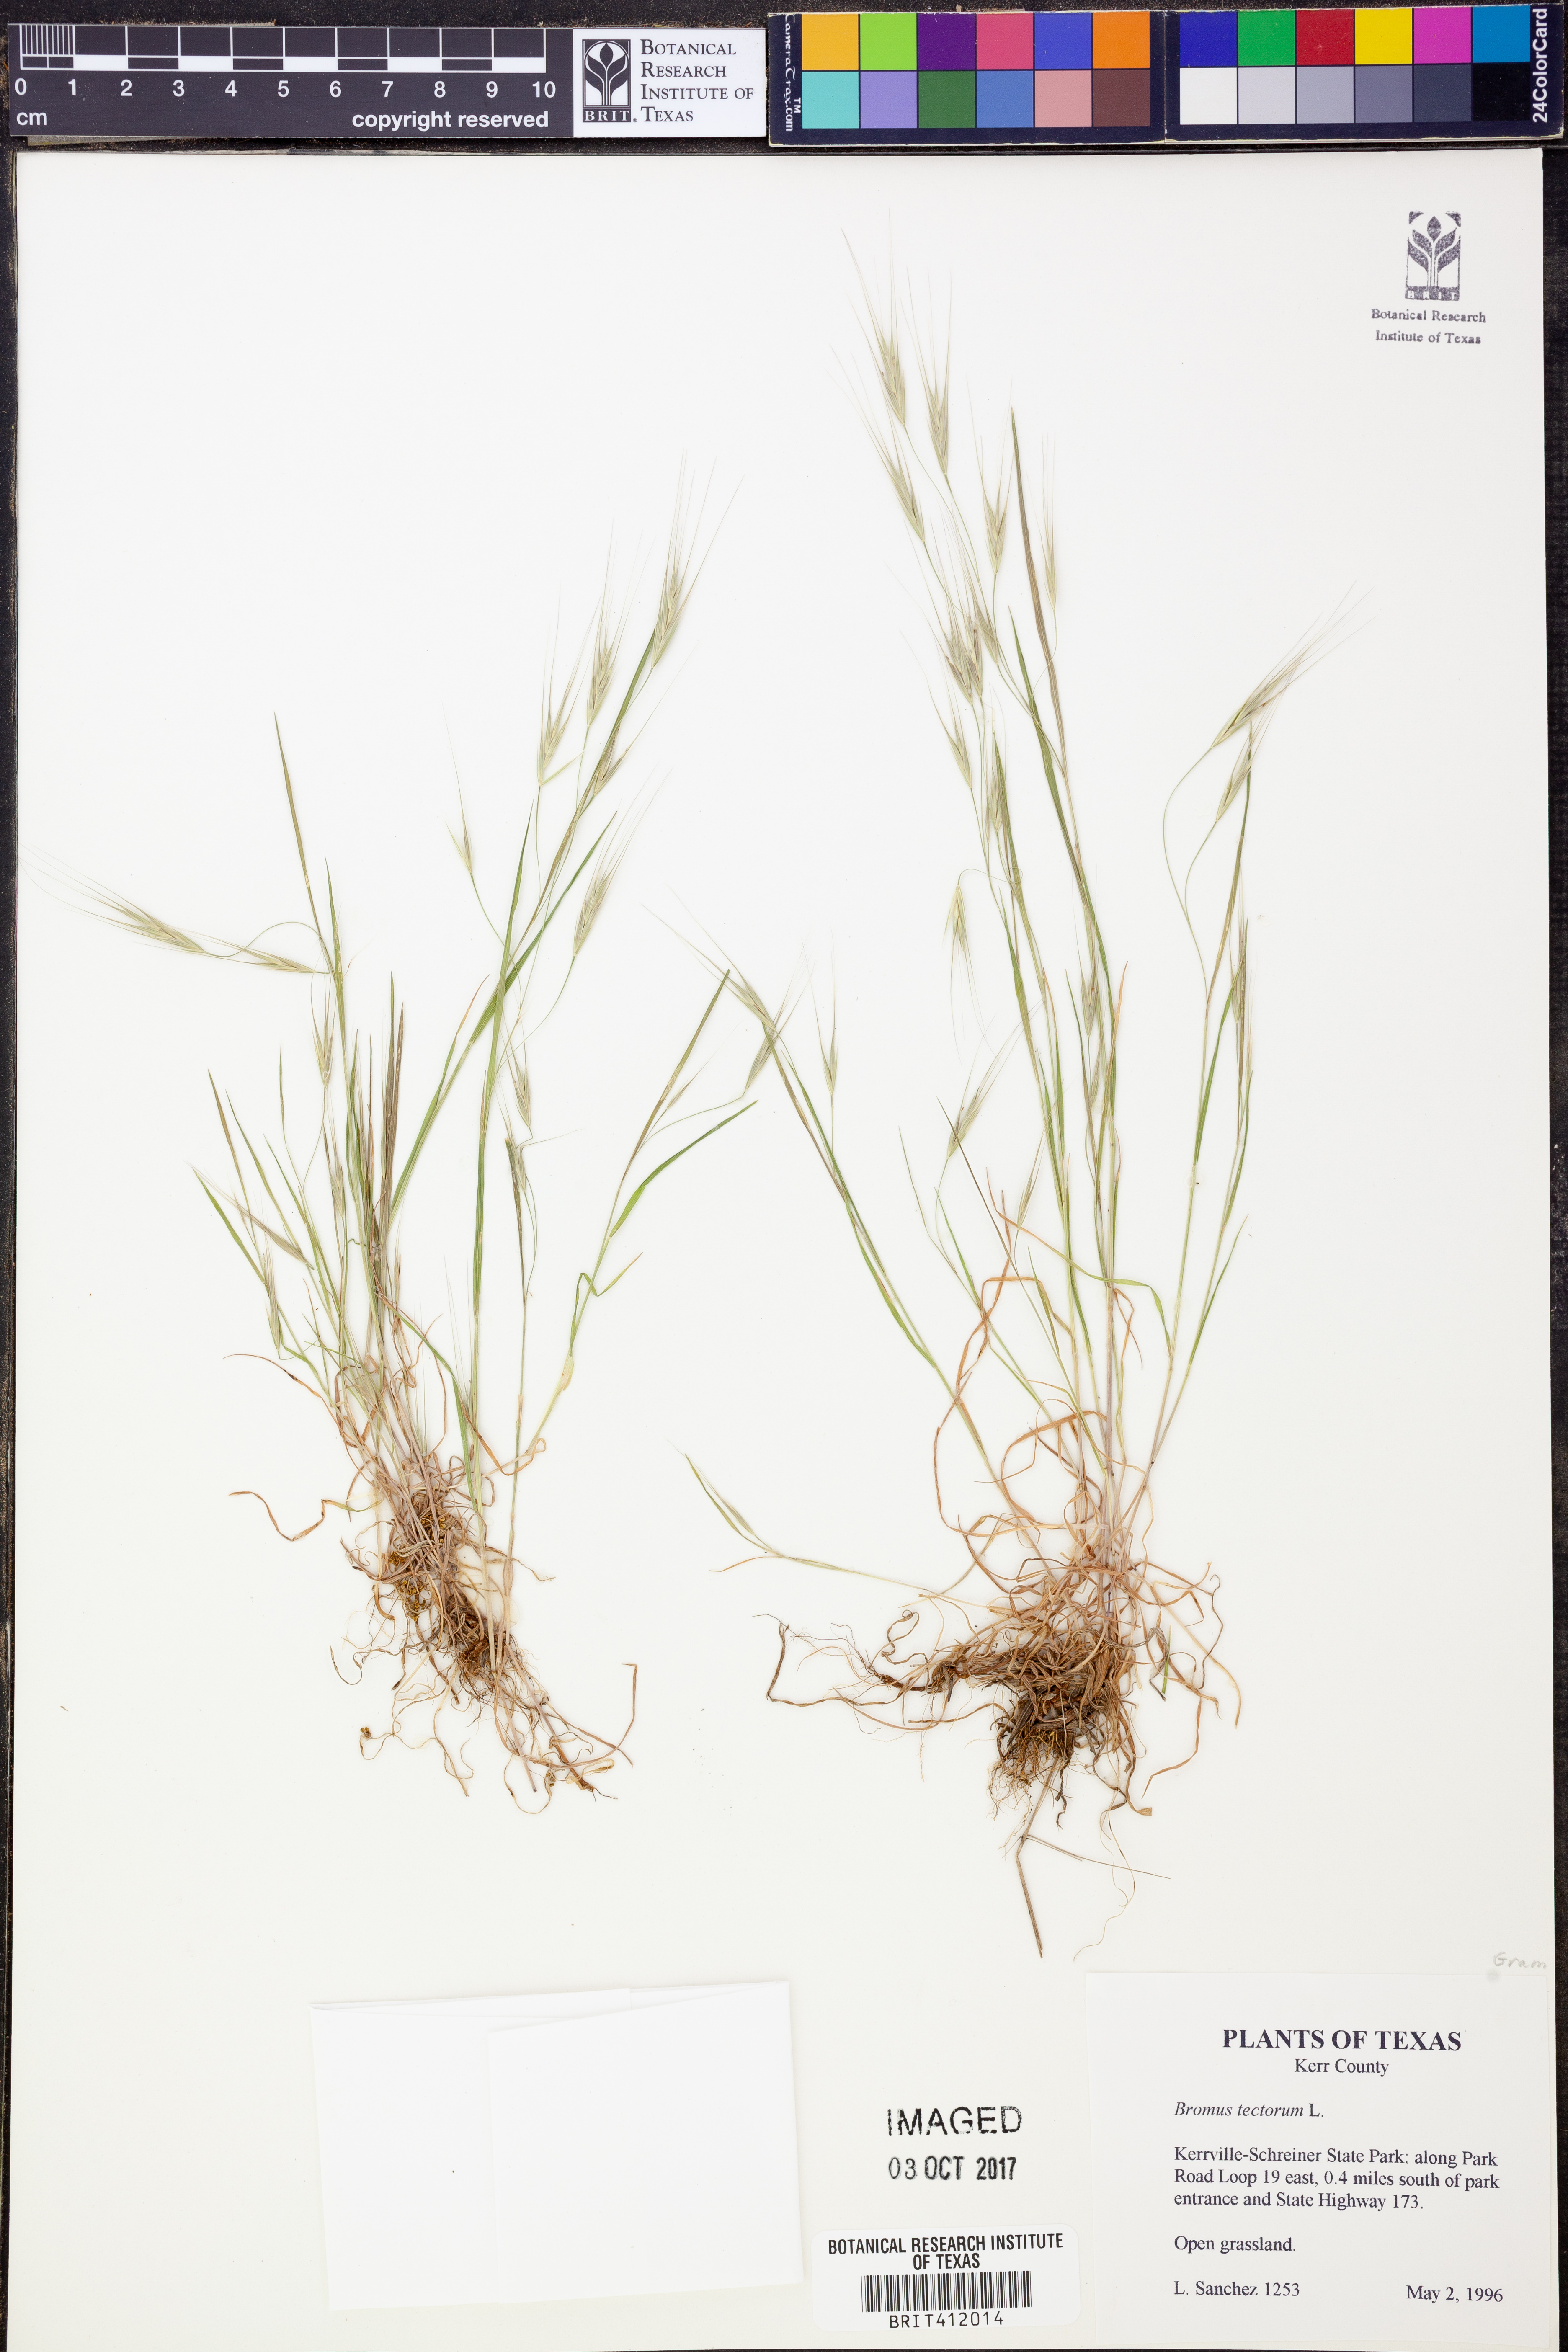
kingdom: Plantae
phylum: Tracheophyta
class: Liliopsida
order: Poales
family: Poaceae
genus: Bromus
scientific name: Bromus tectorum
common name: Cheatgrass
